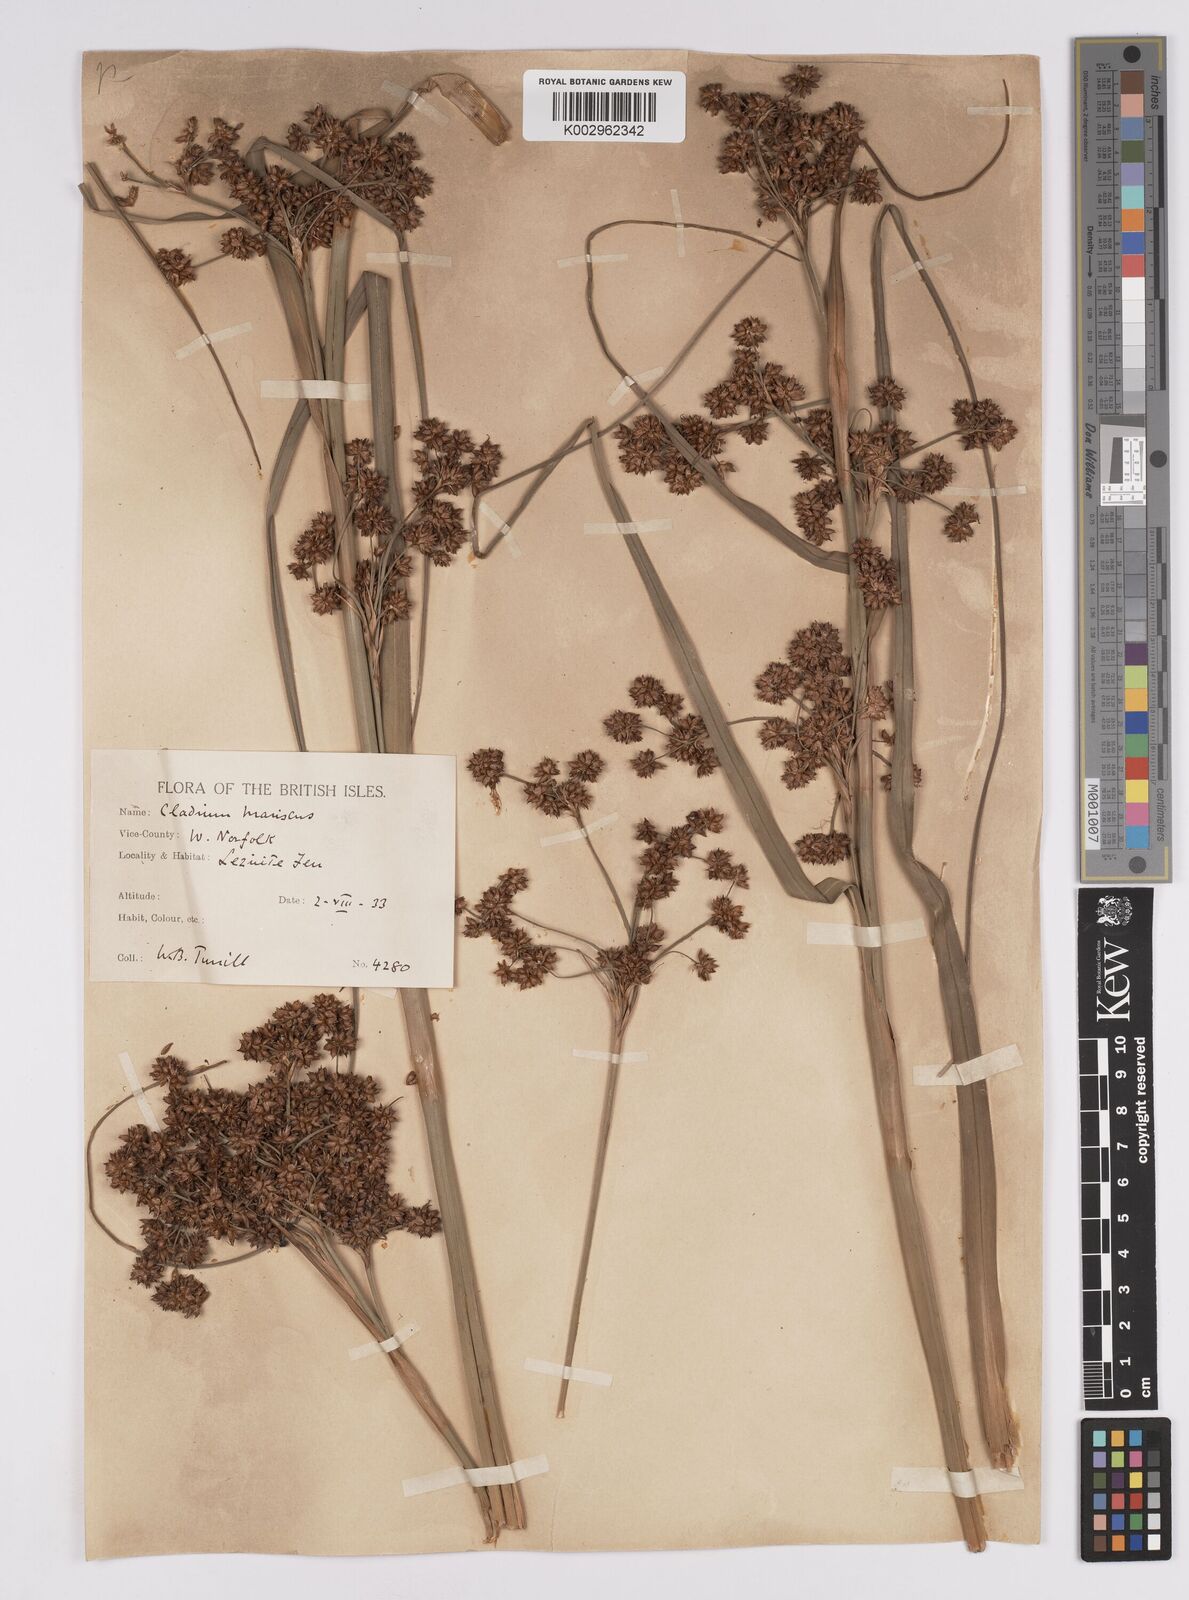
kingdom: Plantae
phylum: Tracheophyta
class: Liliopsida
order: Poales
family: Cyperaceae
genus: Cladium
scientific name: Cladium mariscus
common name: Great fen-sedge
